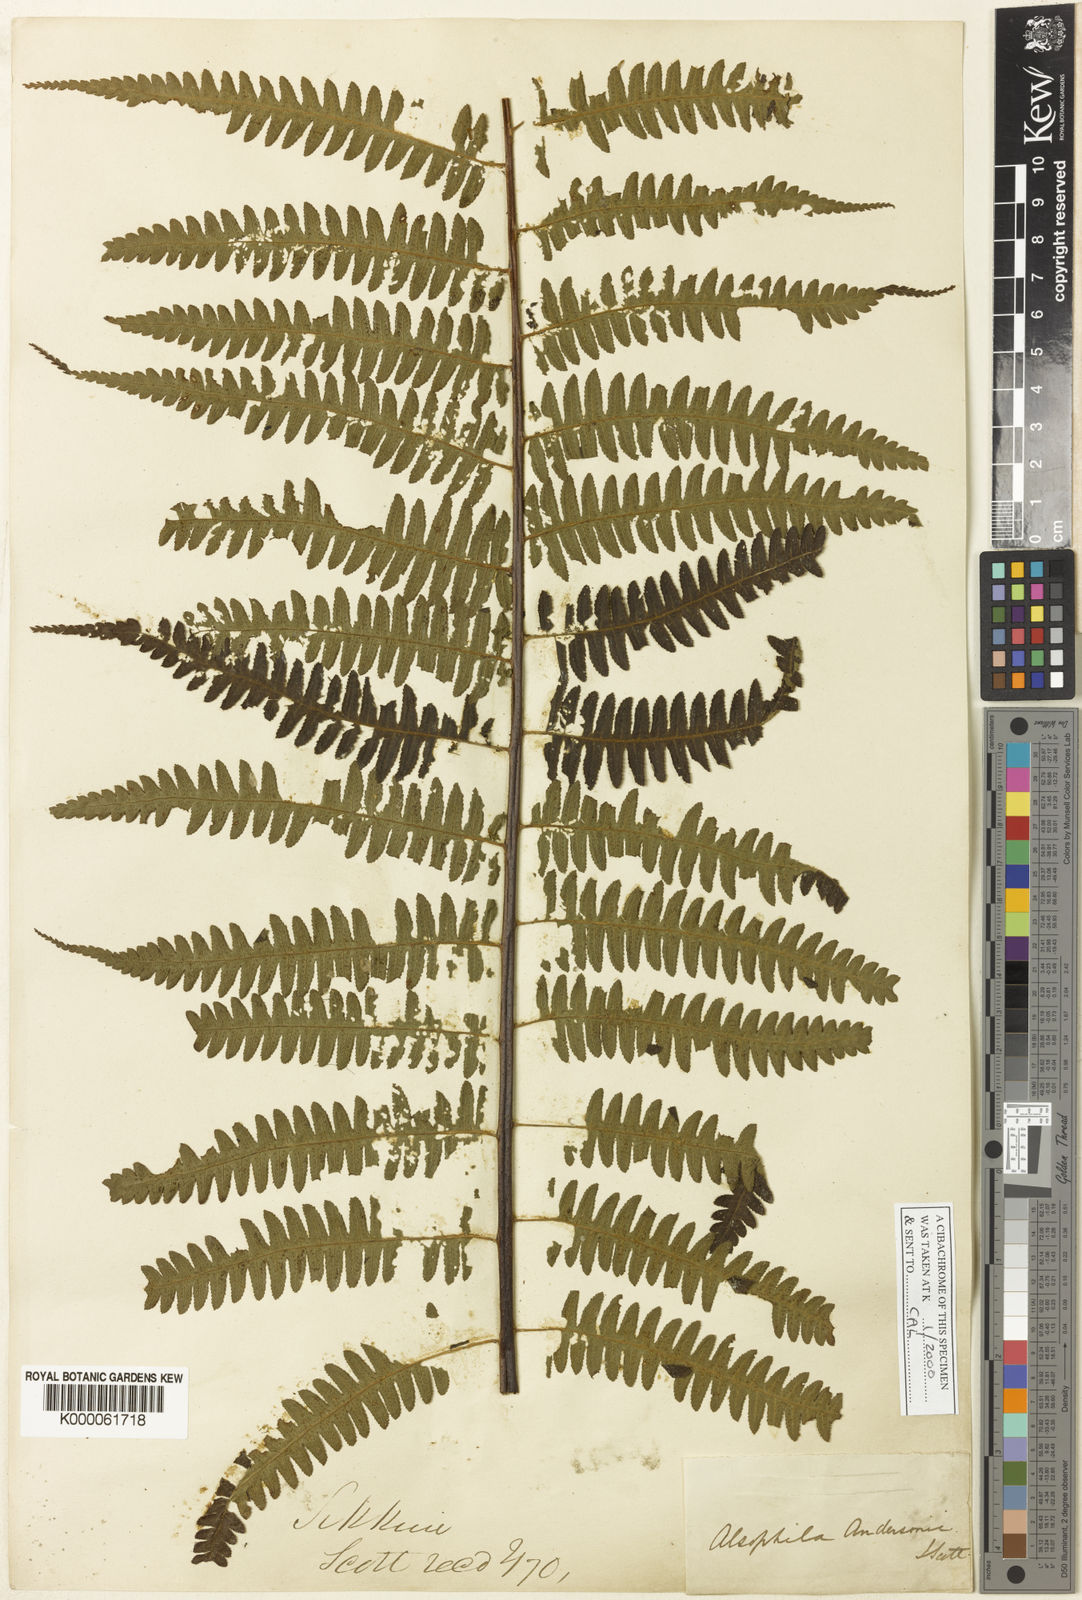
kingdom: Plantae
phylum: Tracheophyta
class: Polypodiopsida
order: Cyatheales
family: Cyatheaceae
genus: Gymnosphaera
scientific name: Gymnosphaera andersonii
